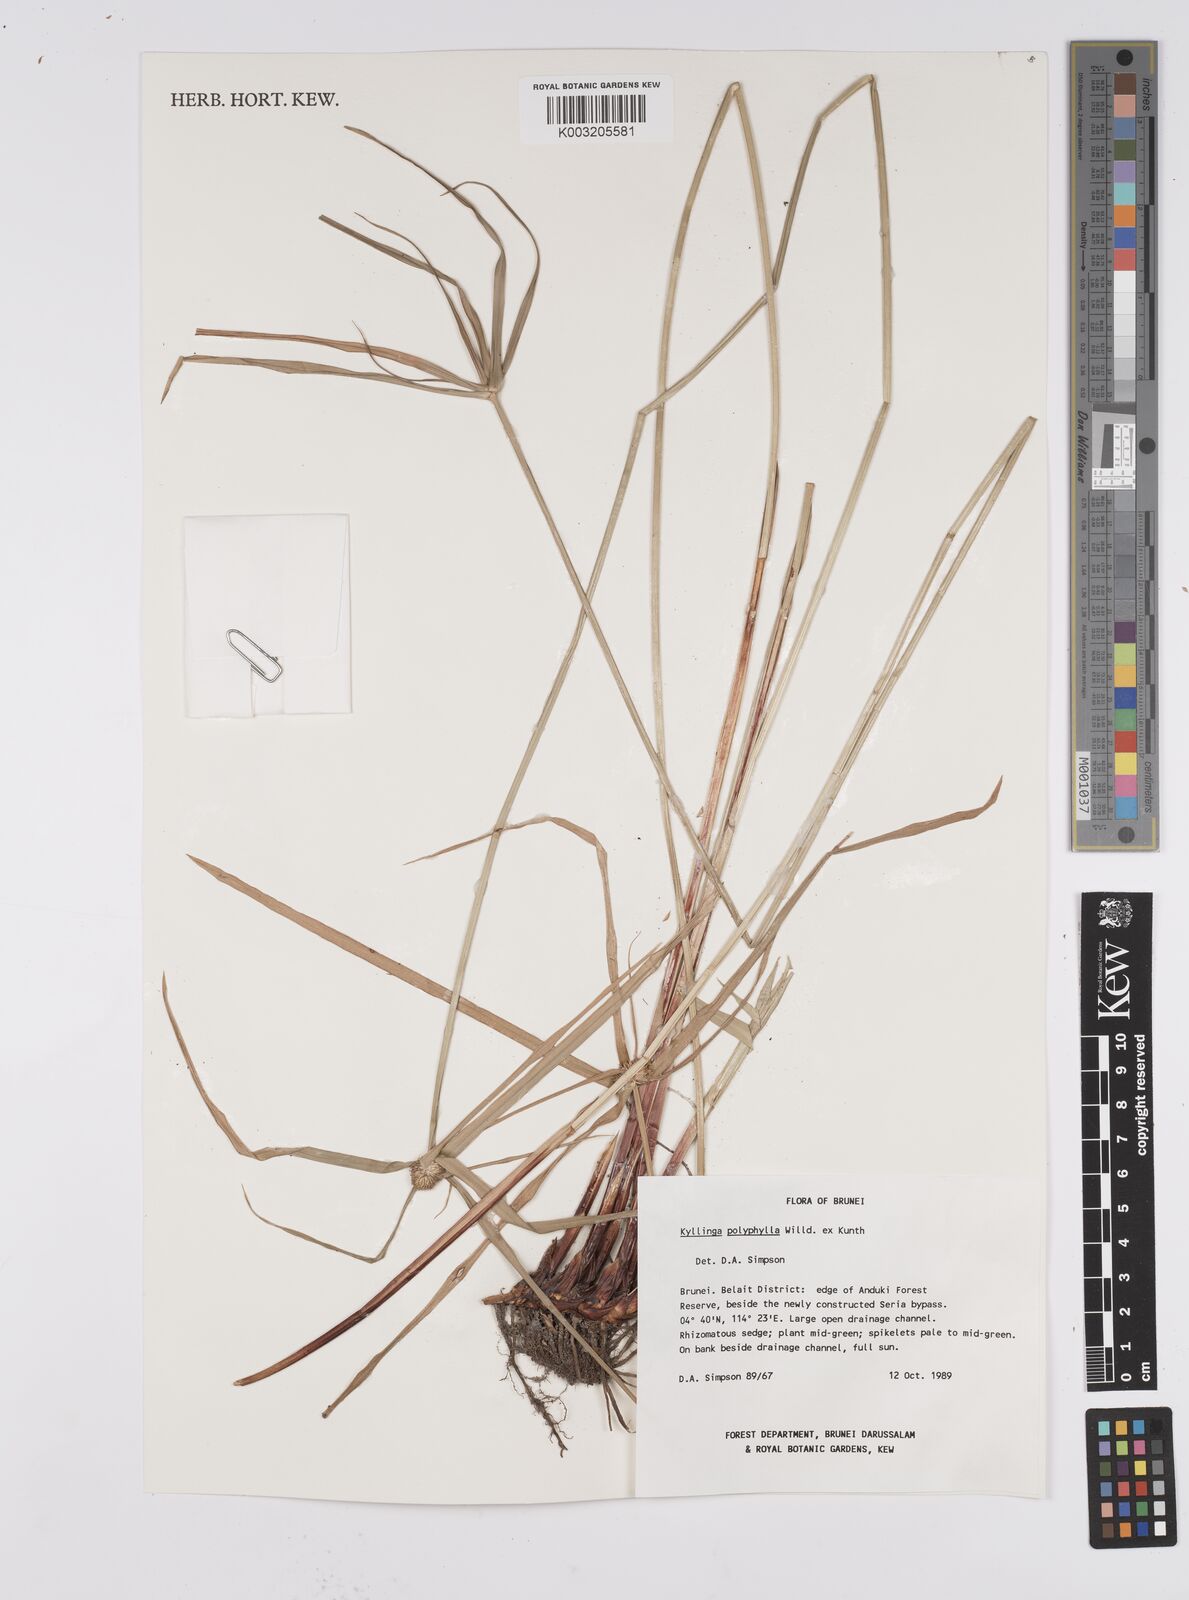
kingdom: Plantae
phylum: Tracheophyta
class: Liliopsida
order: Poales
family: Cyperaceae
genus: Cyperus
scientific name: Cyperus
